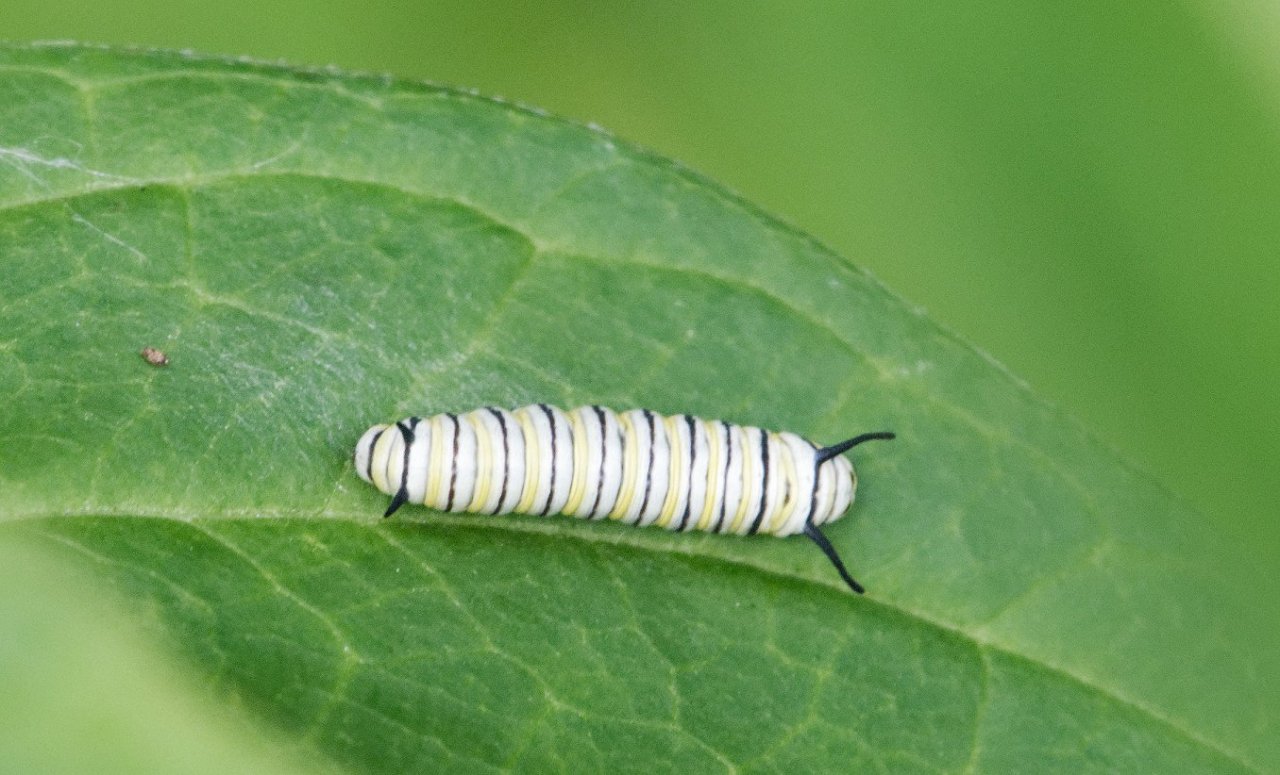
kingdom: Animalia
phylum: Arthropoda
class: Insecta
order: Lepidoptera
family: Nymphalidae
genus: Danaus
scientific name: Danaus plexippus
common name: Monarch
